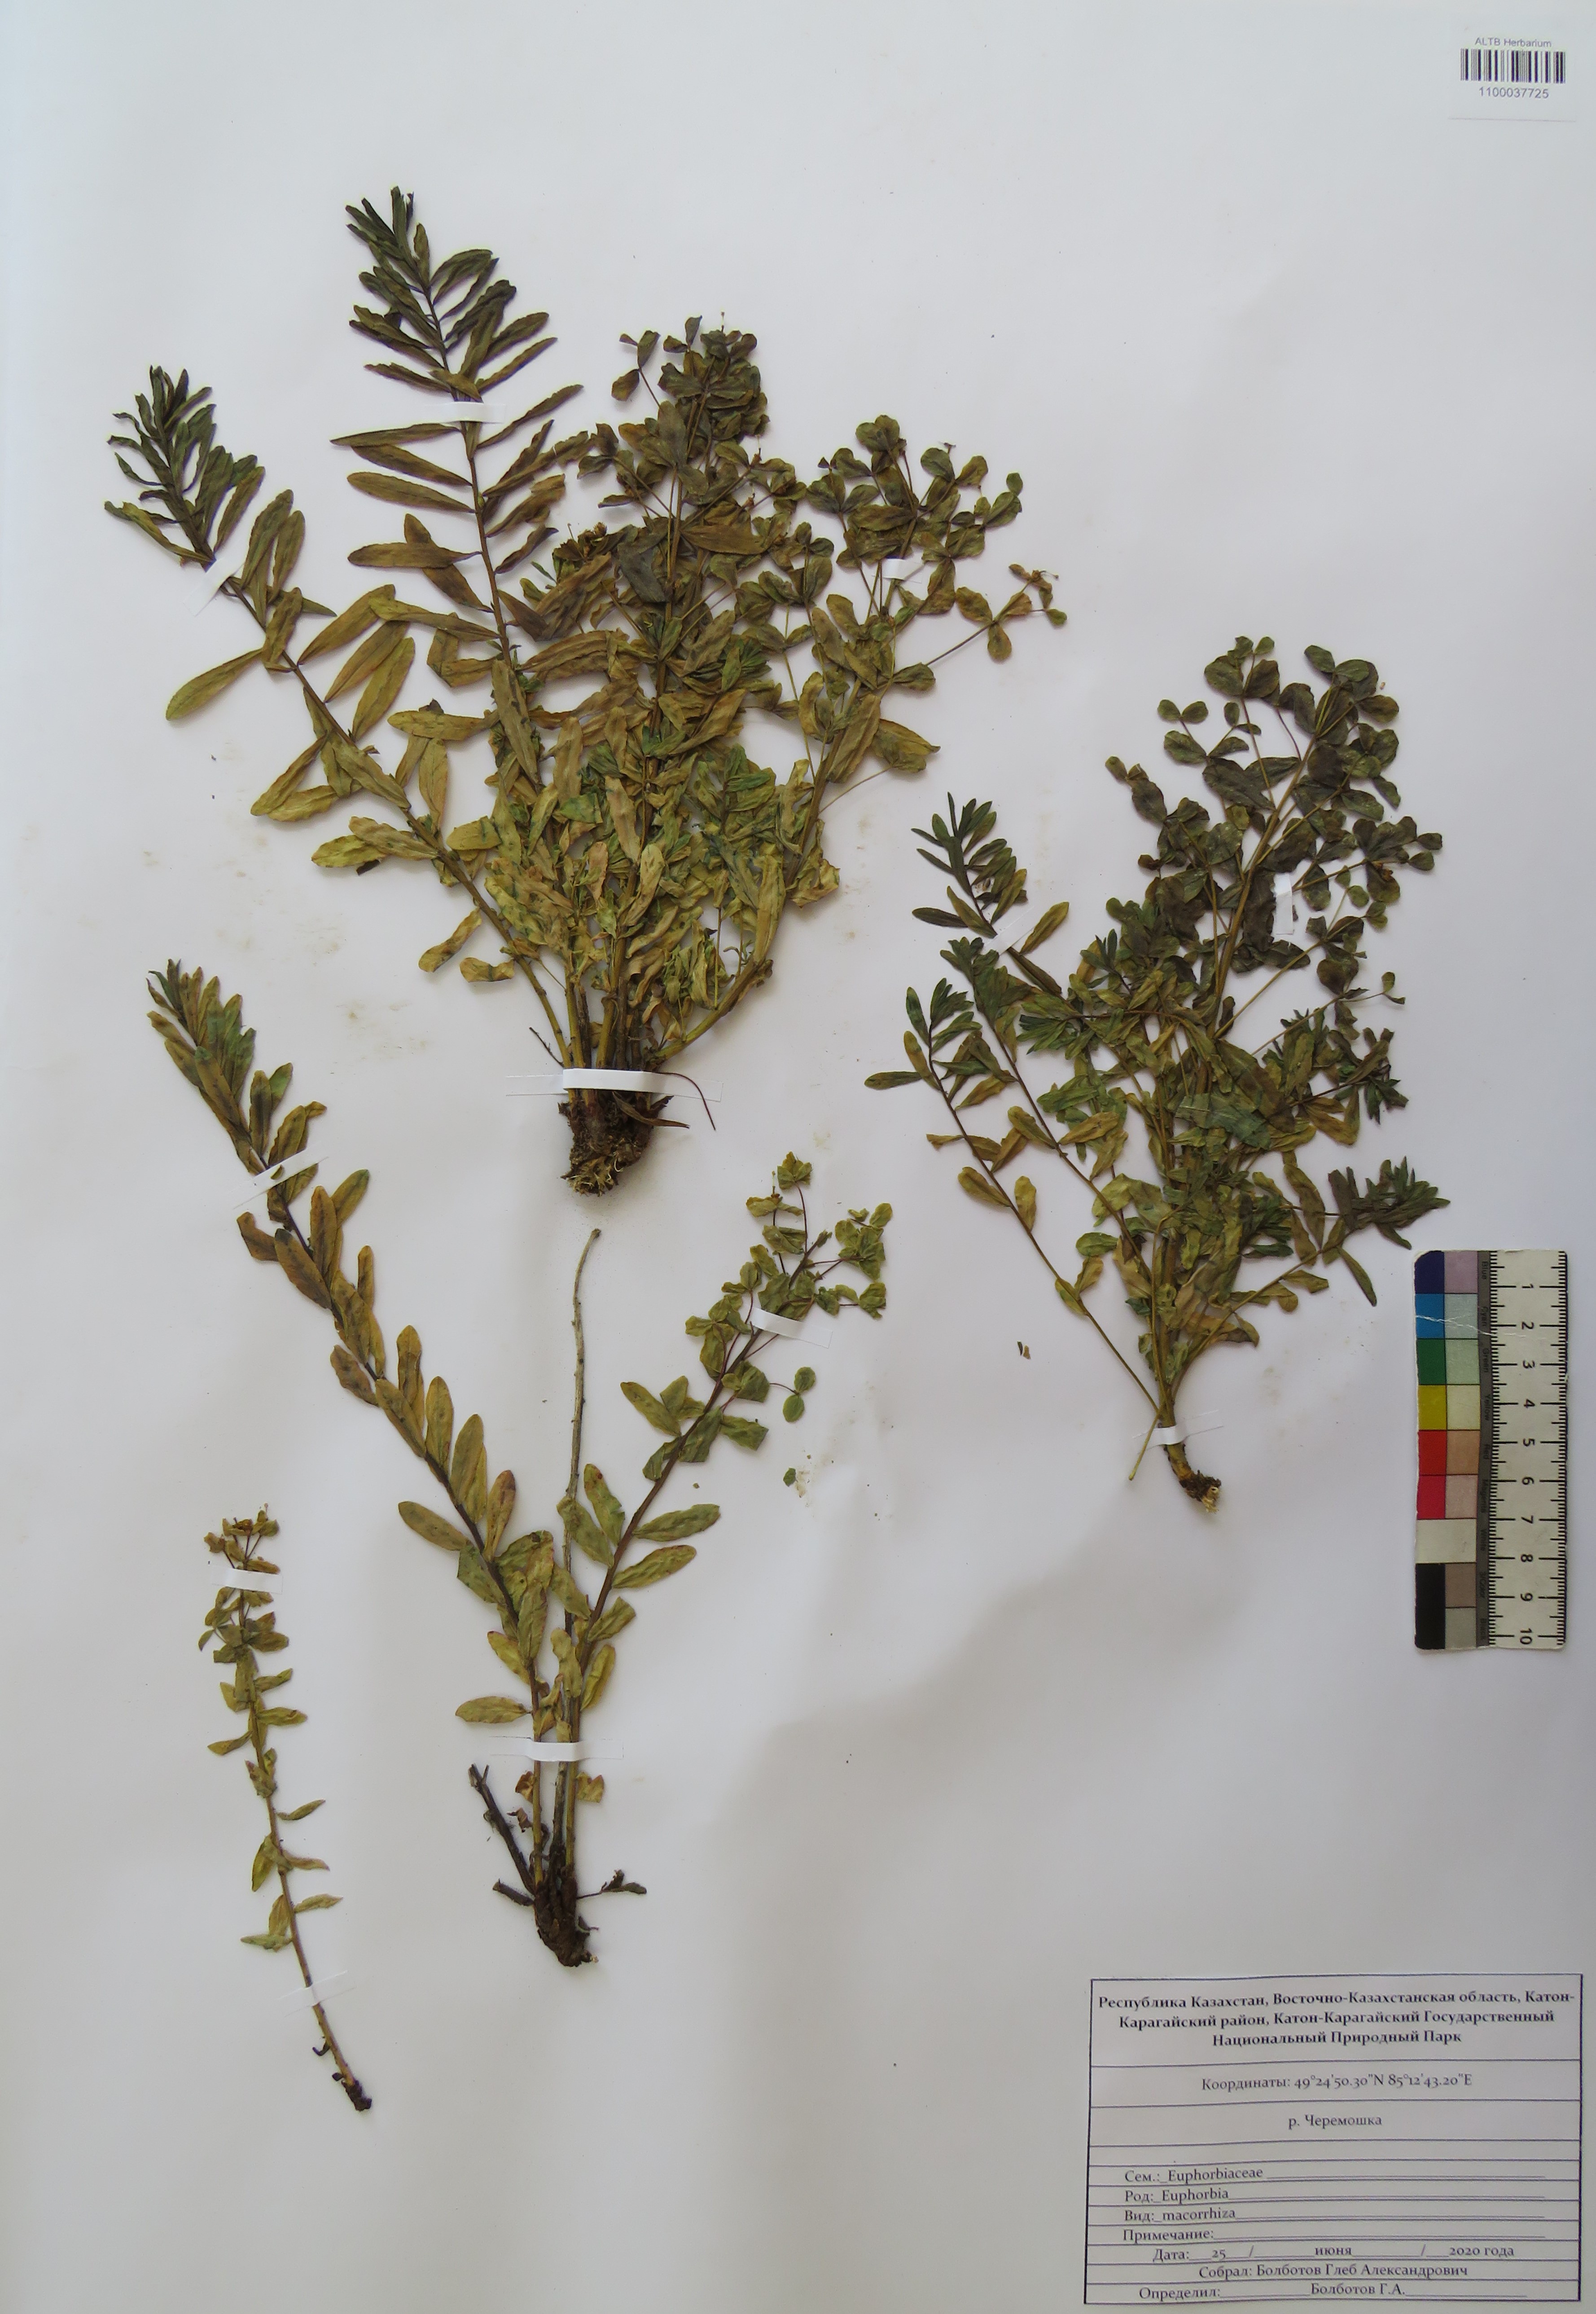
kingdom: Plantae
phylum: Tracheophyta
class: Magnoliopsida
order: Malpighiales
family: Euphorbiaceae
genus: Euphorbia
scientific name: Euphorbia macrorhiza
